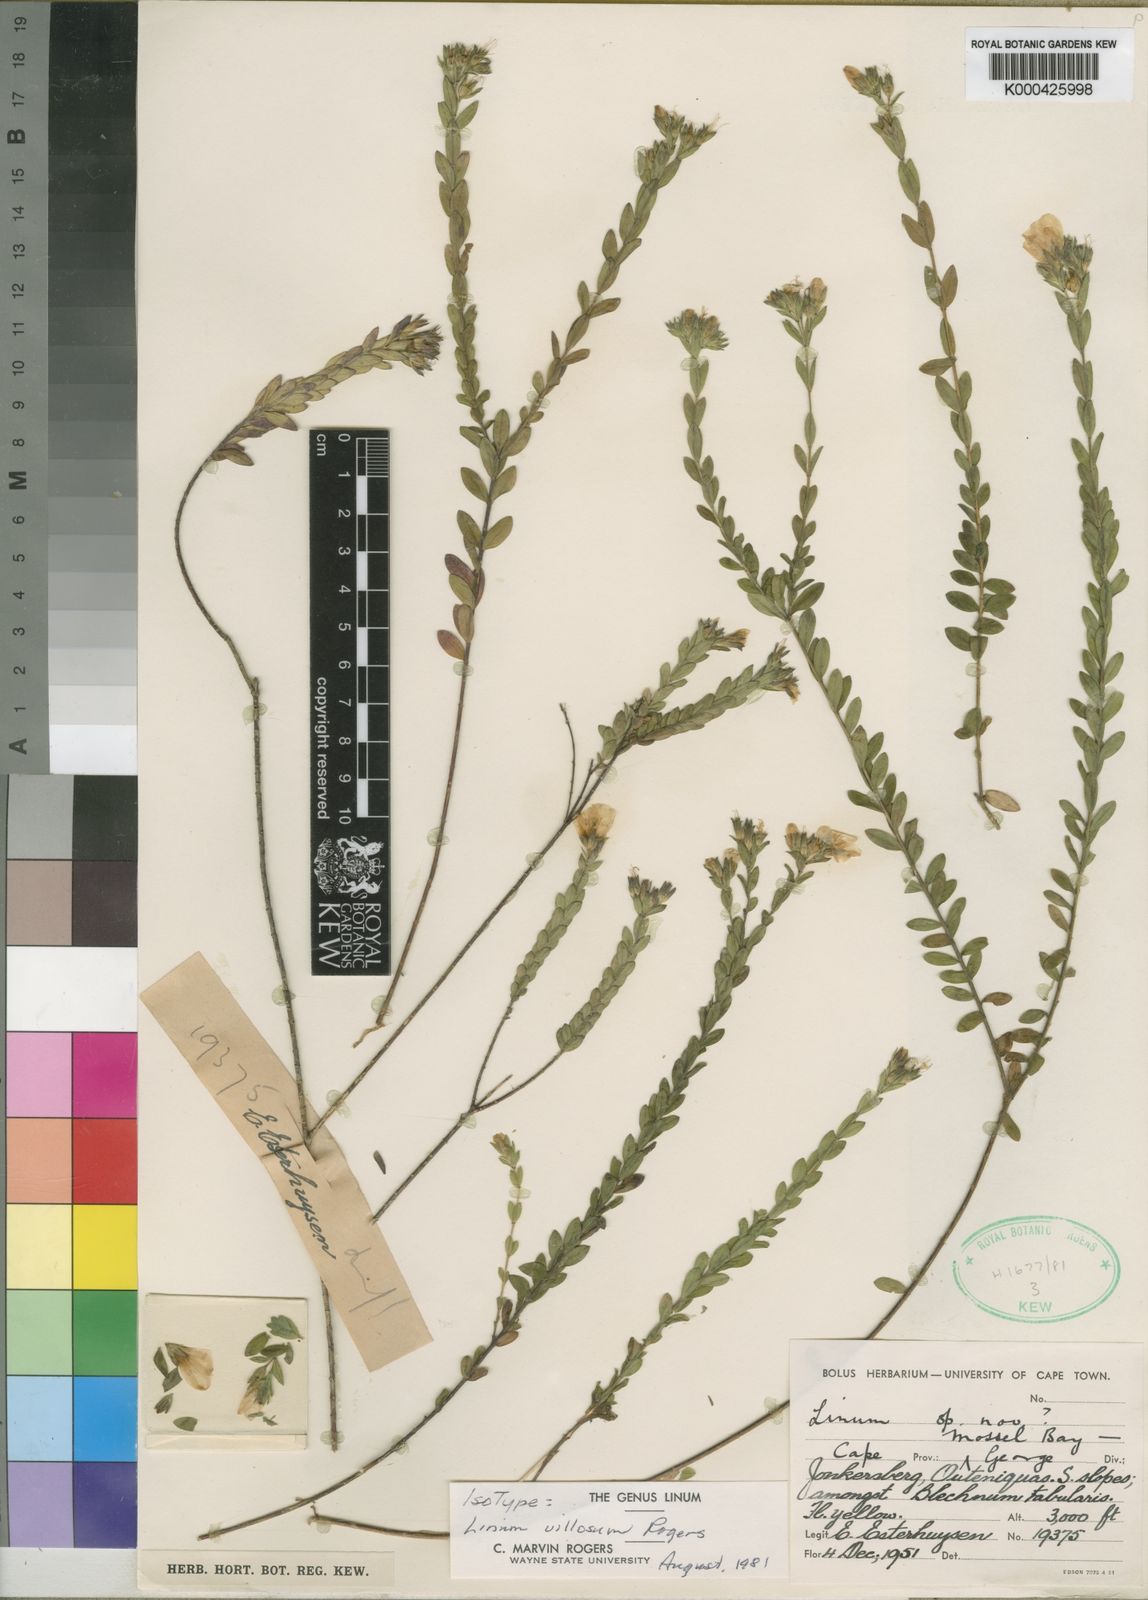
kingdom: Plantae
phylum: Tracheophyta
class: Magnoliopsida
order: Malpighiales
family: Linaceae
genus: Linum
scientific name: Linum villosum
